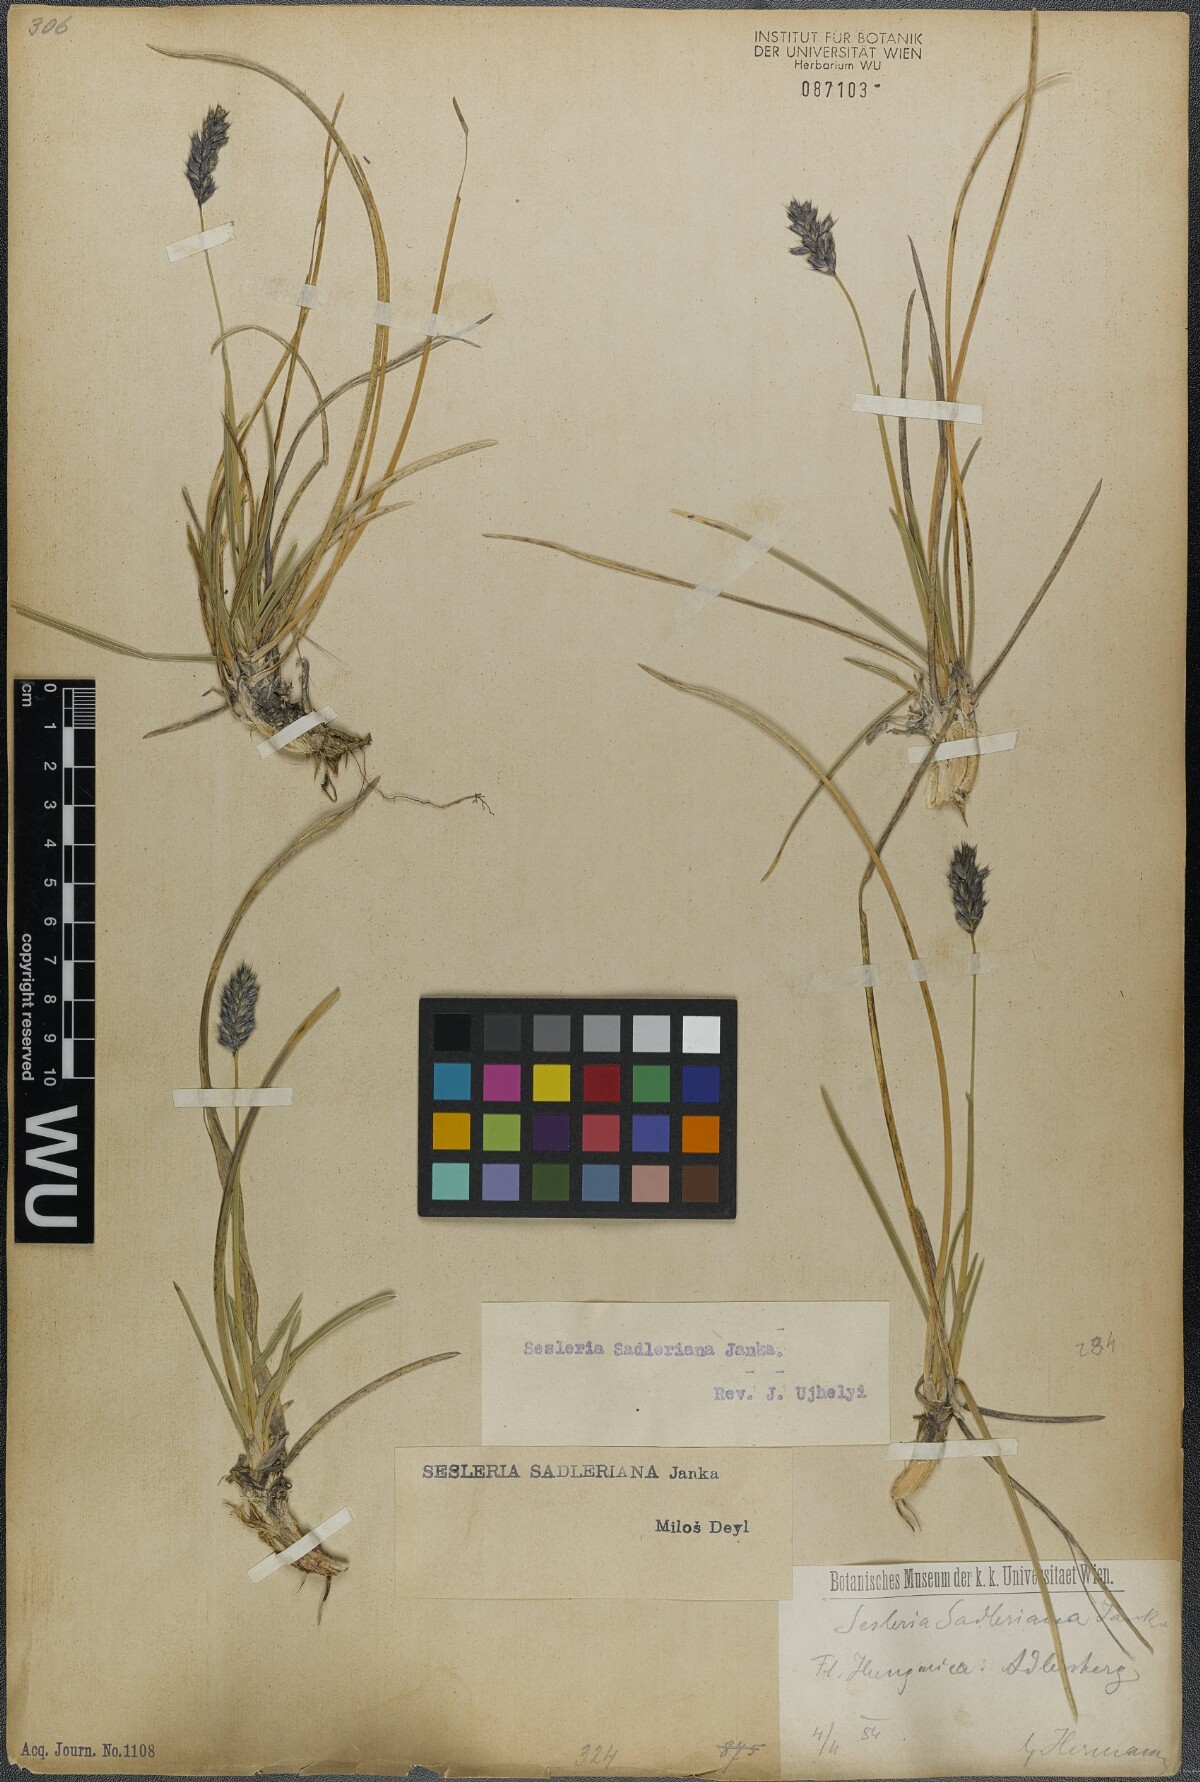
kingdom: Plantae
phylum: Tracheophyta
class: Liliopsida
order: Poales
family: Poaceae
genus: Sesleria
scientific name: Sesleria sadleriana
